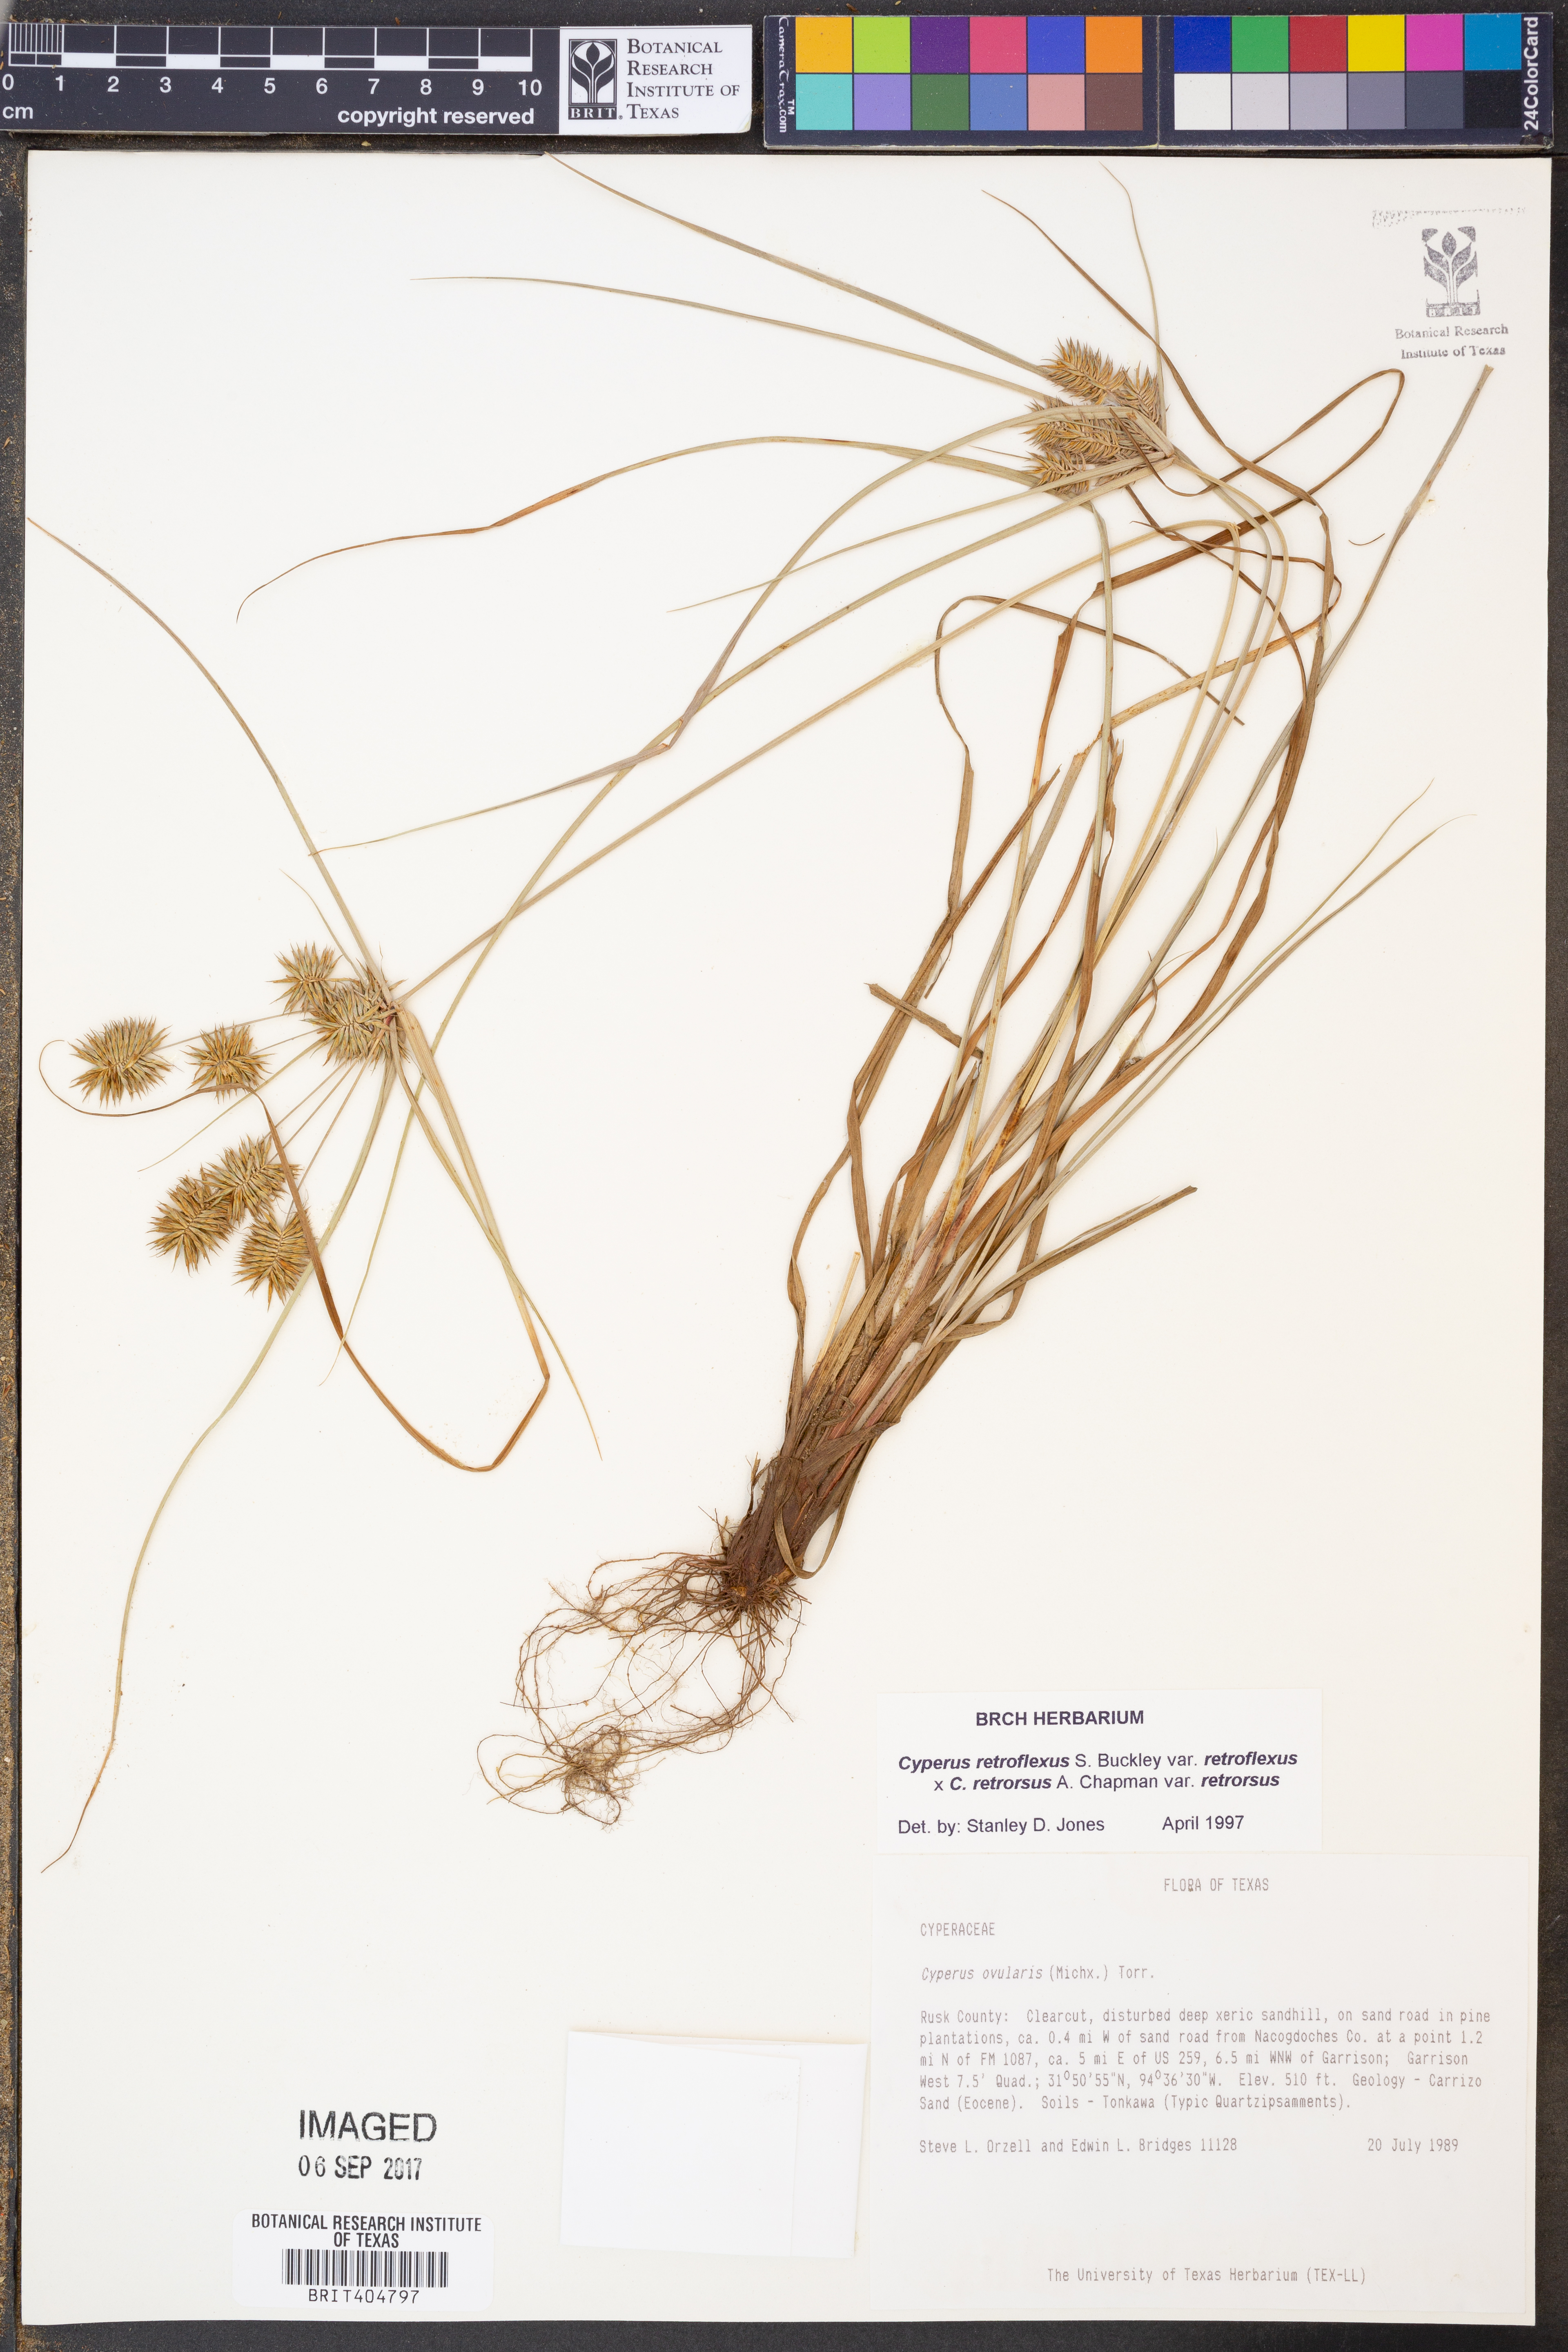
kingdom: Plantae
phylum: Tracheophyta
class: Liliopsida
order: Poales
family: Cyperaceae
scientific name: Cyperaceae
